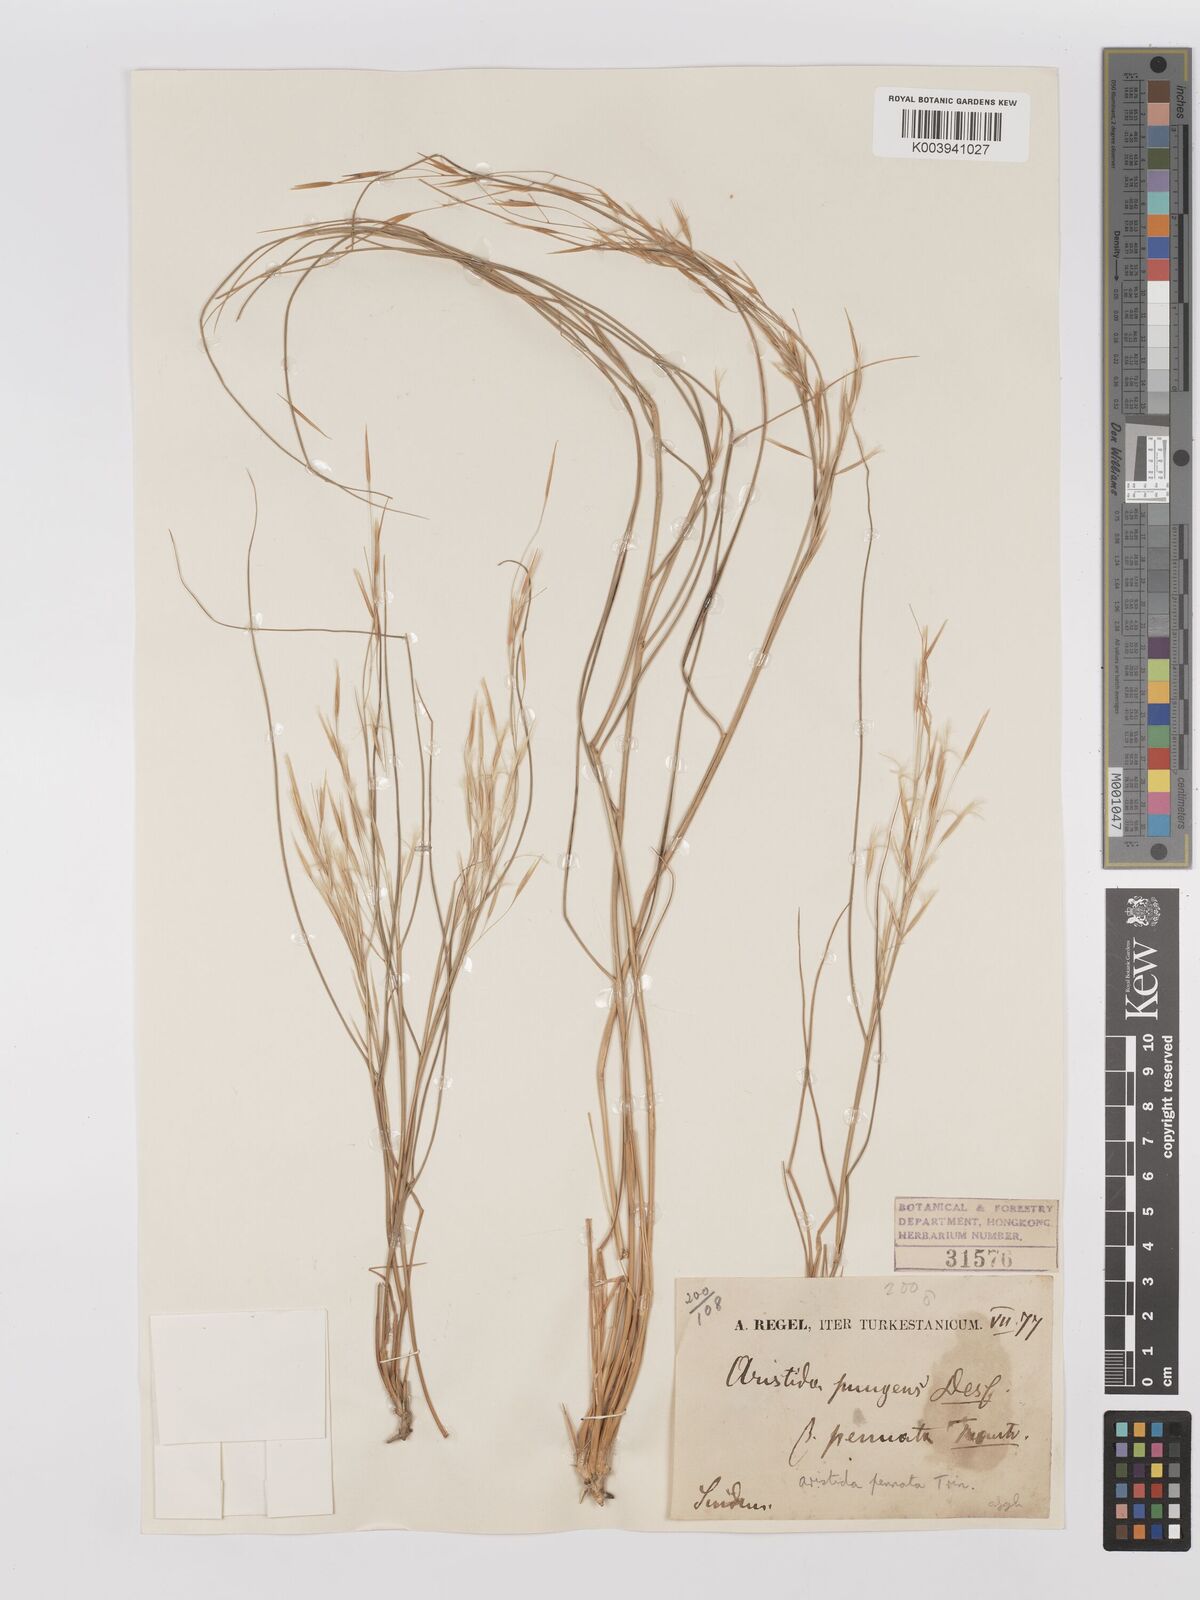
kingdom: Plantae
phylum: Tracheophyta
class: Liliopsida
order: Poales
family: Poaceae
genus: Stipagrostis
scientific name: Stipagrostis pungens
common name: Three-awn grass
